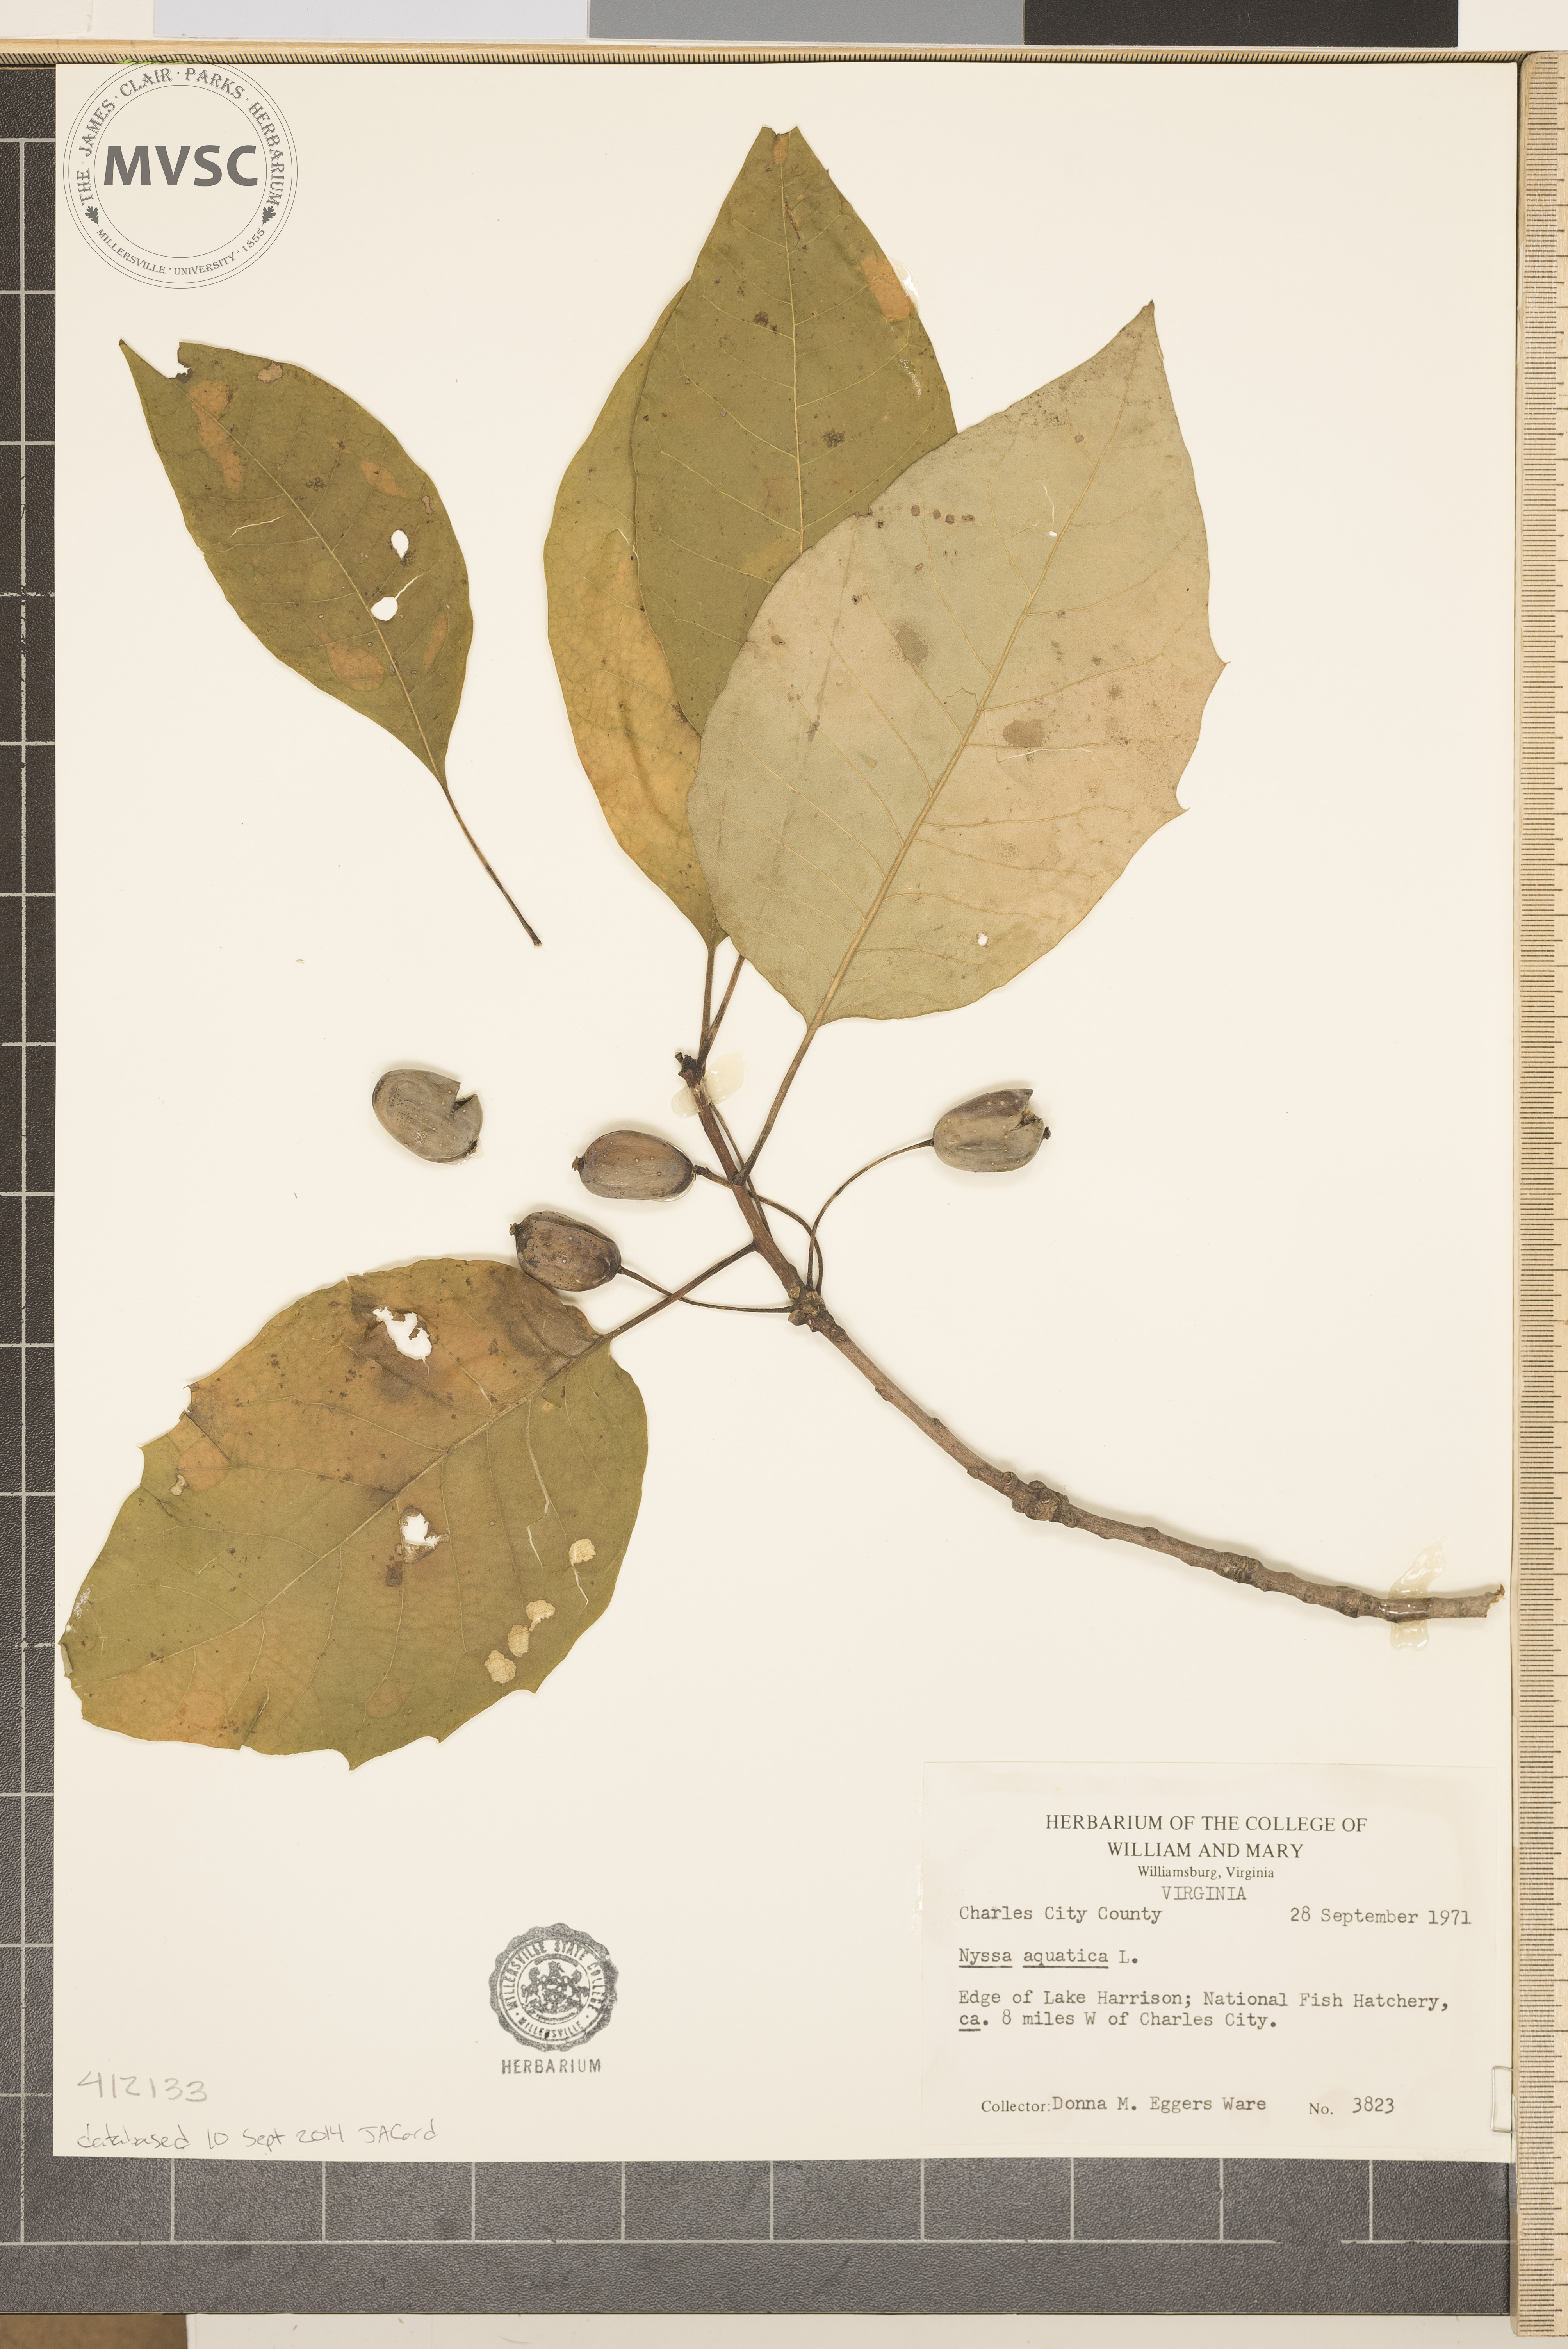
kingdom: Plantae
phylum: Tracheophyta
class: Magnoliopsida
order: Cornales
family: Nyssaceae
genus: Nyssa
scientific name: Nyssa aquatica
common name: Swamp tupelo
